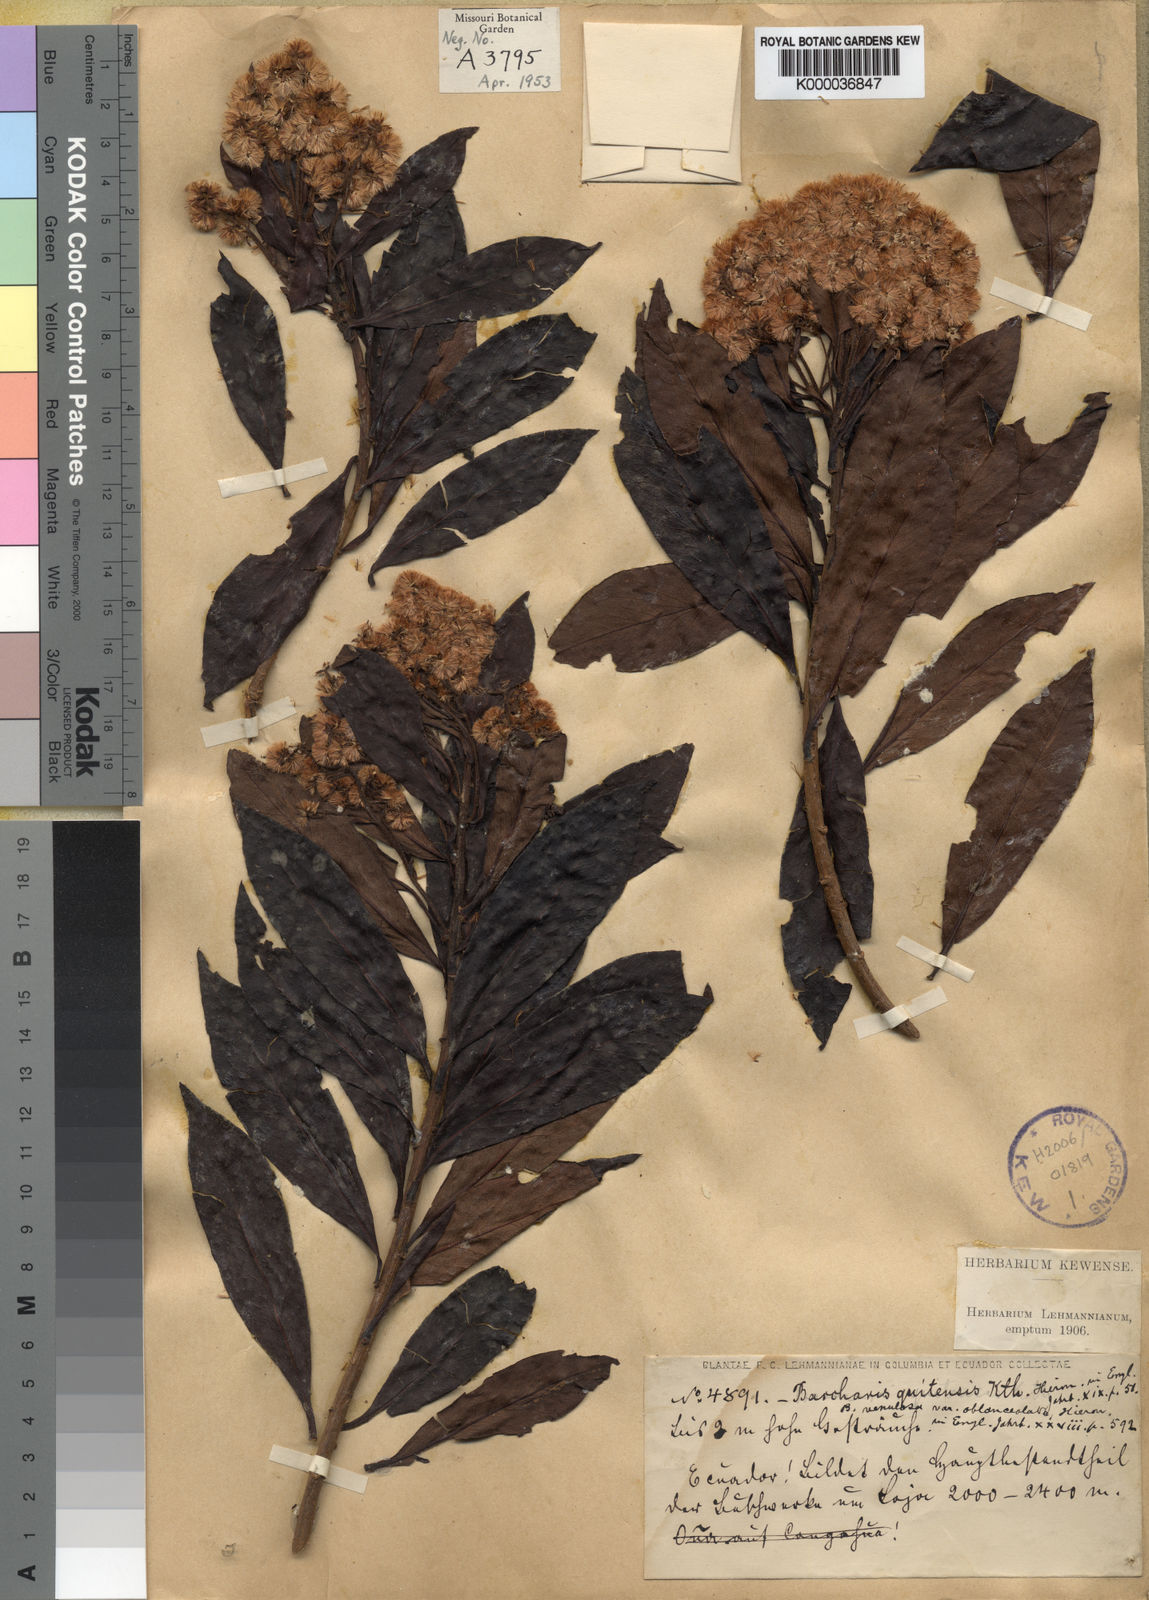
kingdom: Plantae
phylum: Tracheophyta
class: Magnoliopsida
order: Asterales
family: Asteraceae
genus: Baccharis
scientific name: Baccharis oblongifolia
